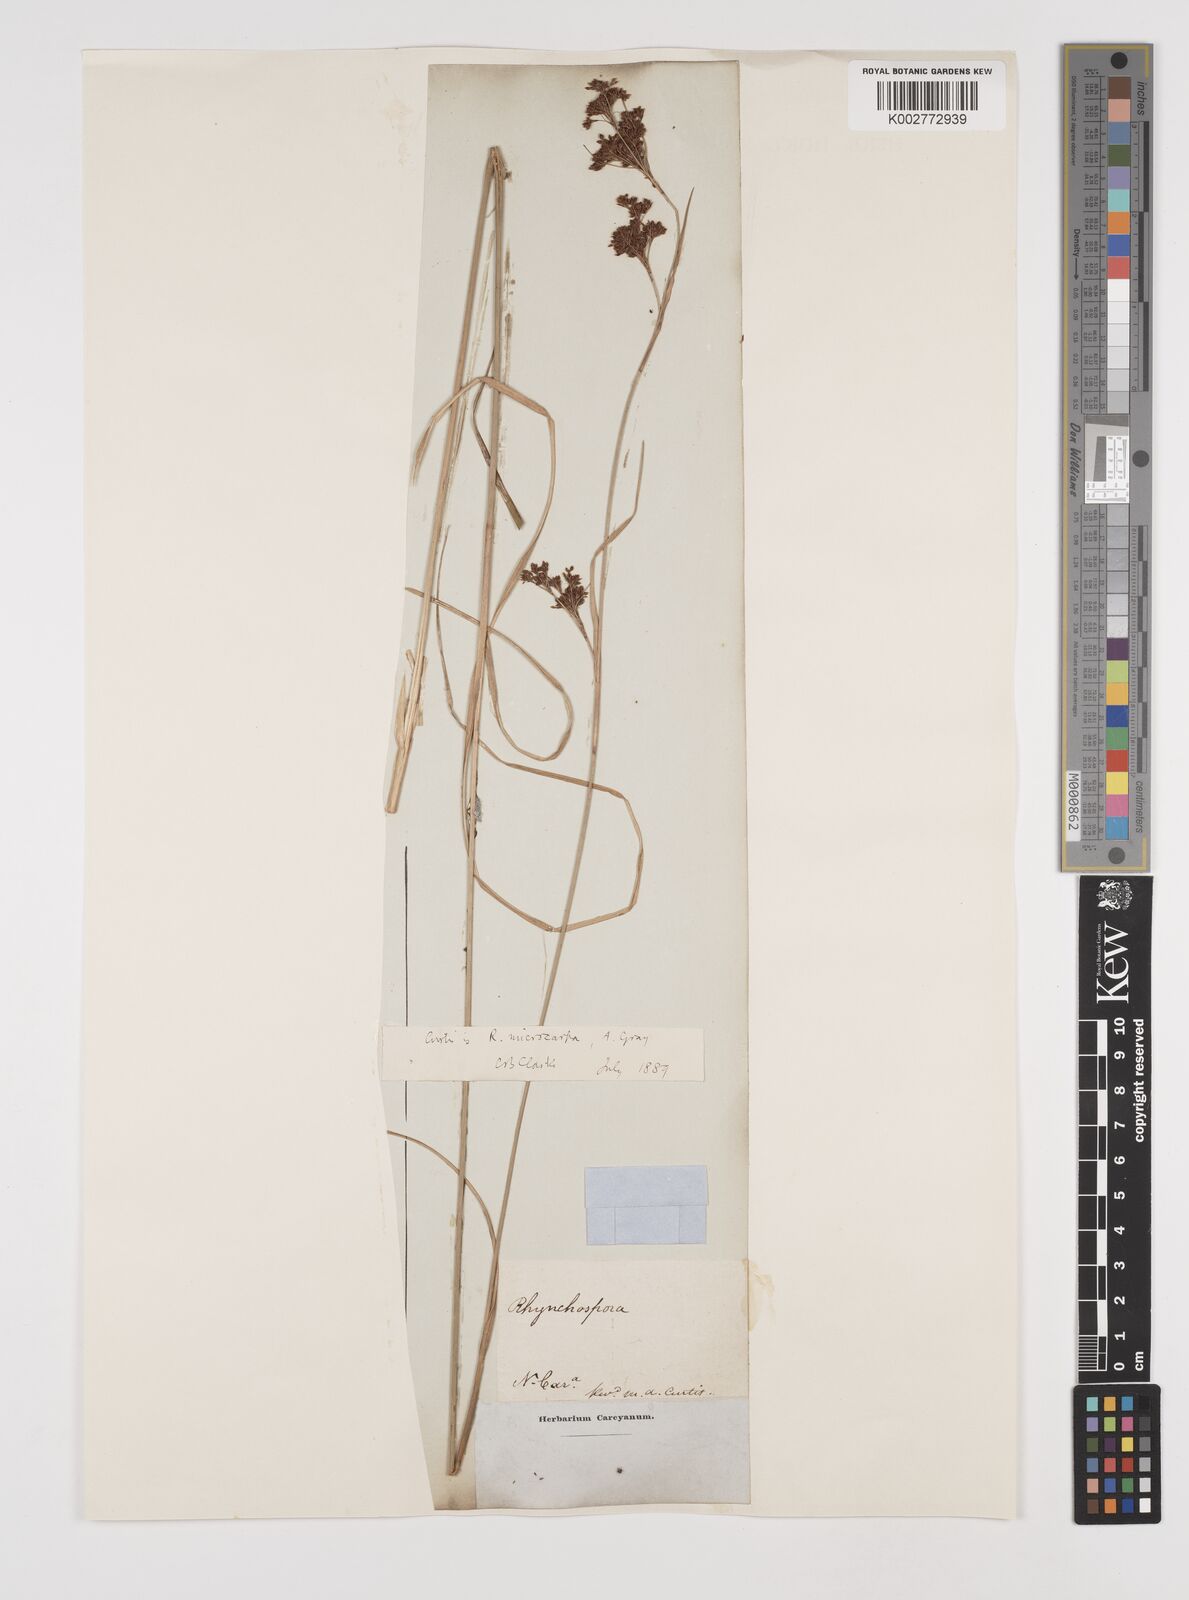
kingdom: Plantae
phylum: Tracheophyta
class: Liliopsida
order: Poales
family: Cyperaceae
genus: Rhynchospora
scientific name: Rhynchospora microcarpa
